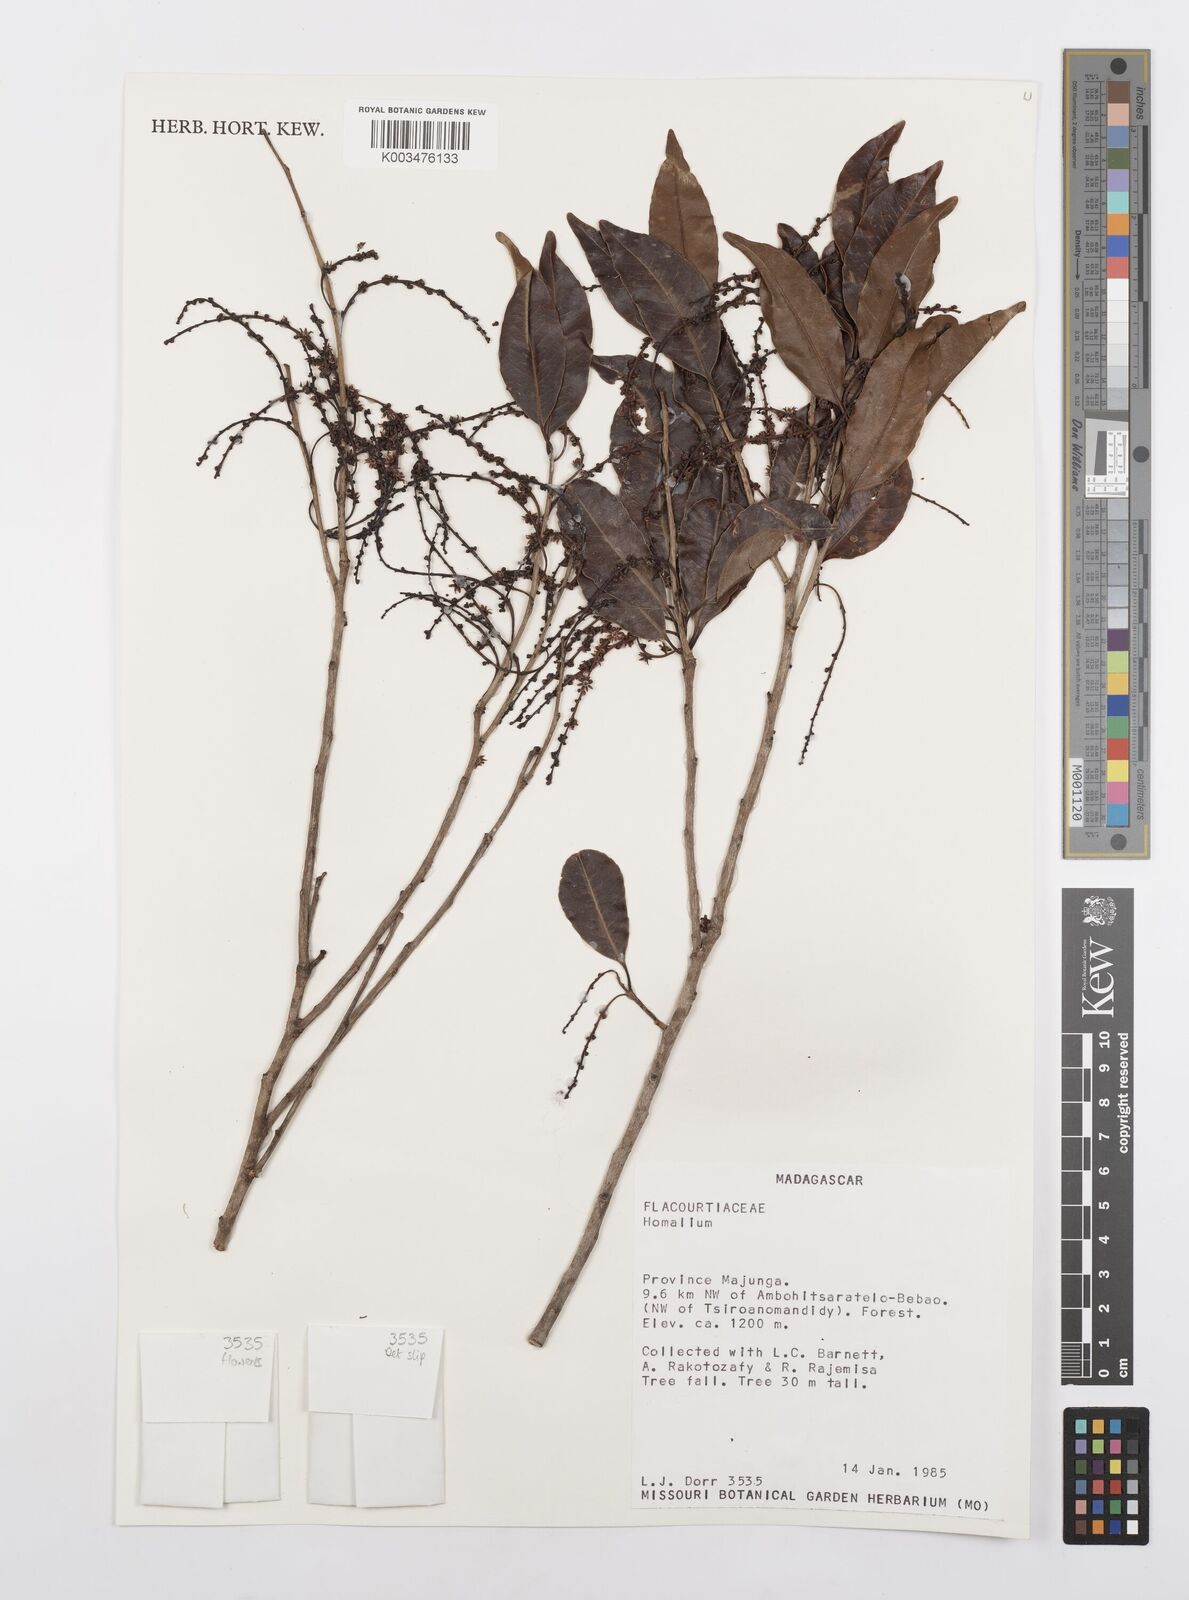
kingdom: Plantae
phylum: Tracheophyta
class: Magnoliopsida
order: Malpighiales
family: Salicaceae
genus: Homalium
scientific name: Homalium
